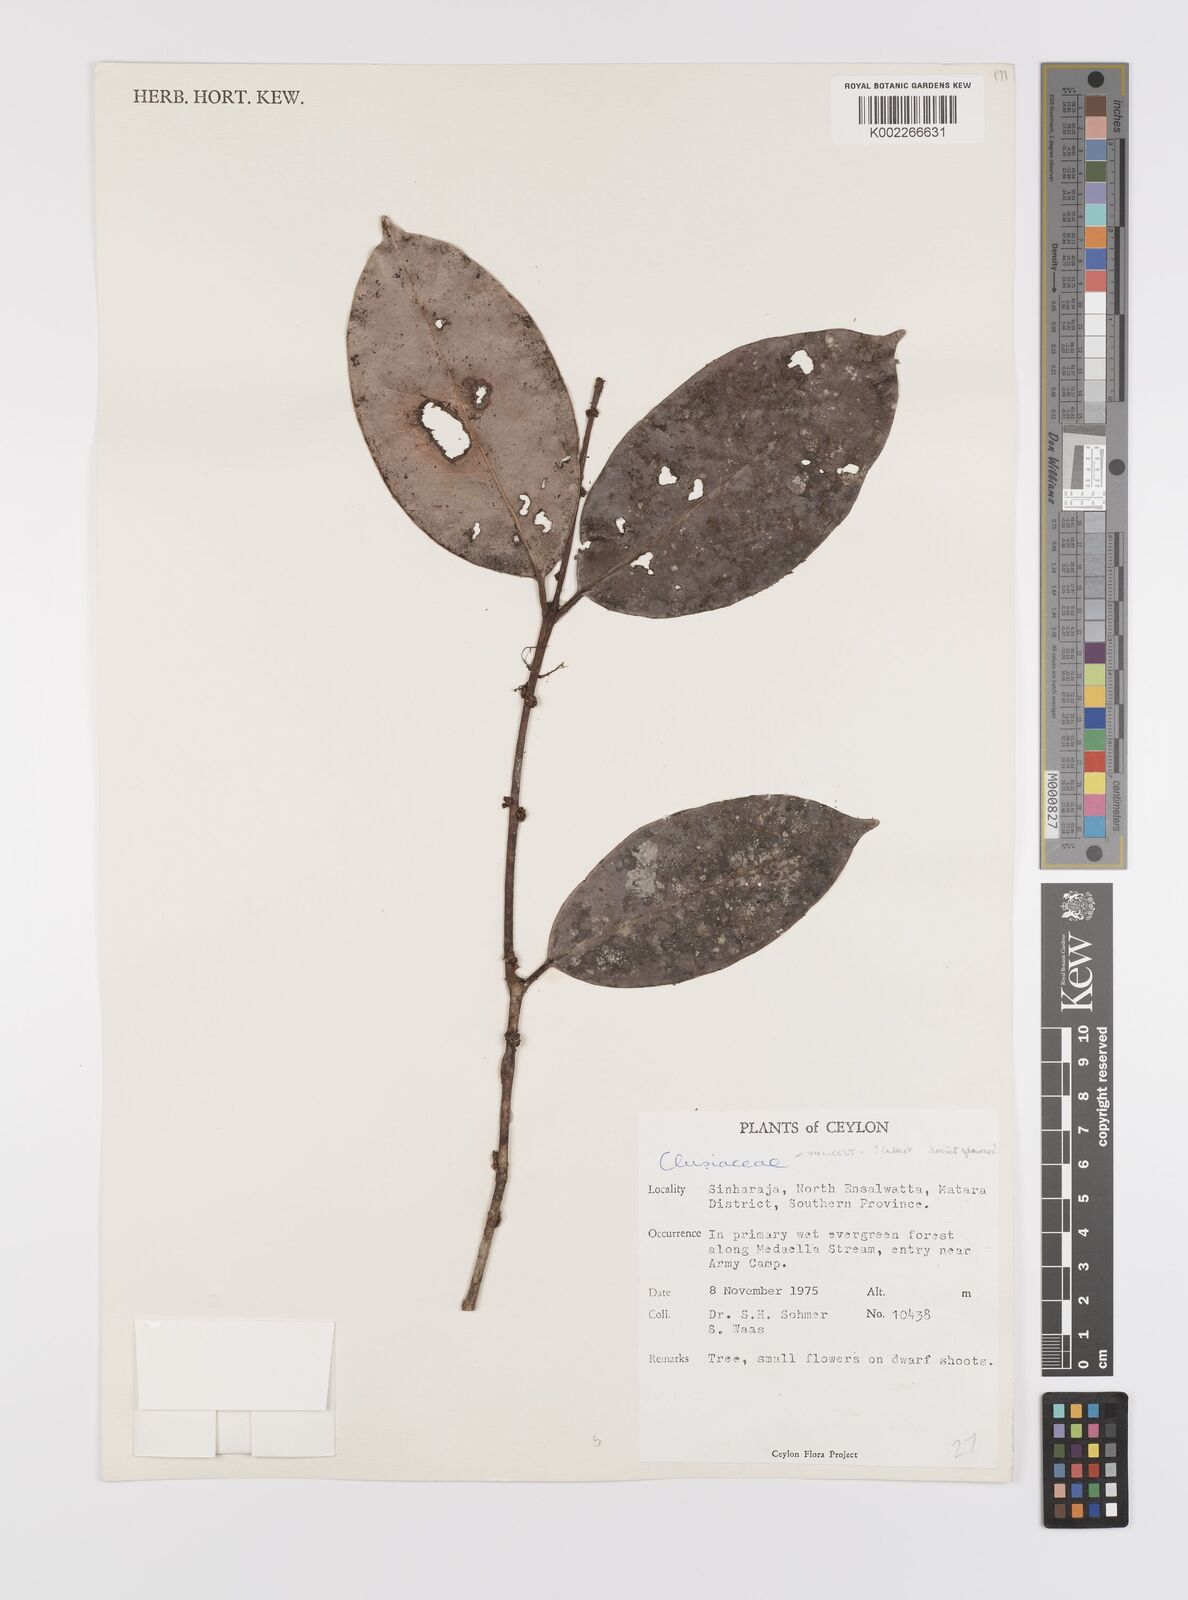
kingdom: Plantae
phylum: Tracheophyta
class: Magnoliopsida
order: Celastrales
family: Celastraceae
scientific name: Celastraceae
